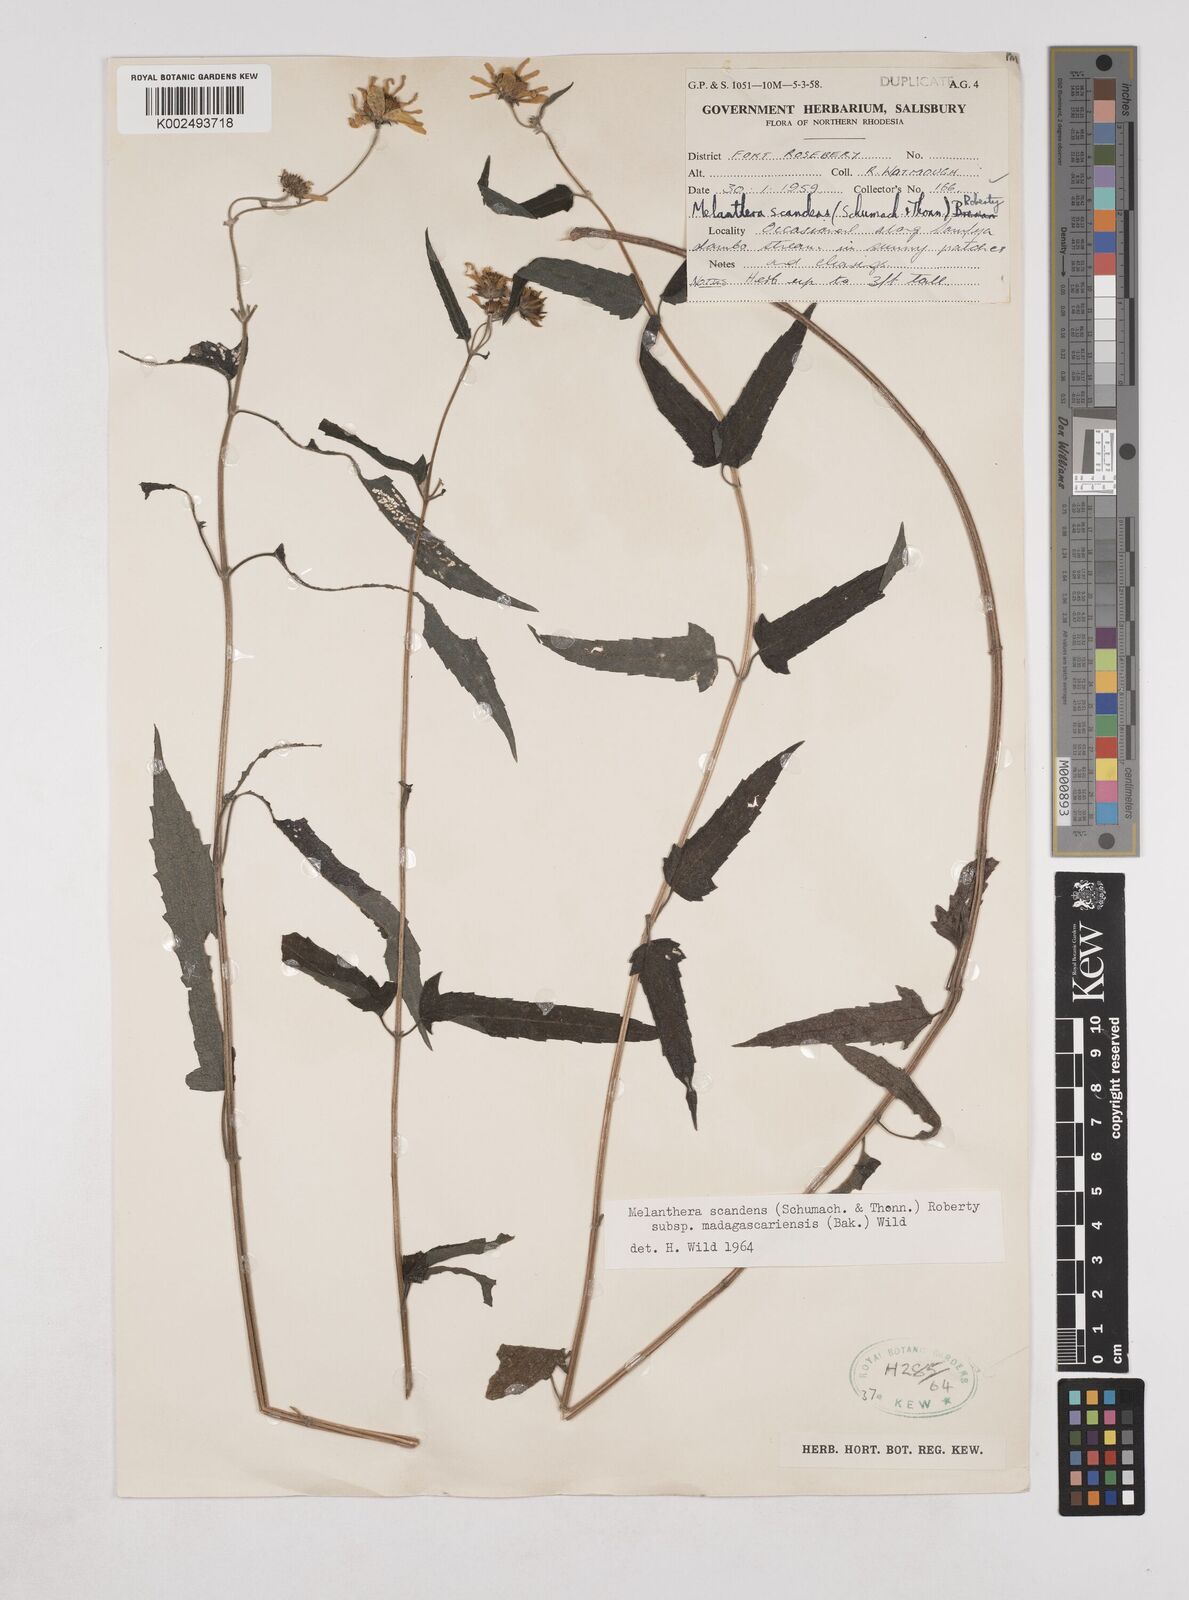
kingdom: Plantae
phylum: Tracheophyta
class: Magnoliopsida
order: Asterales
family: Asteraceae
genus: Lipotriche
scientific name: Lipotriche scandens
